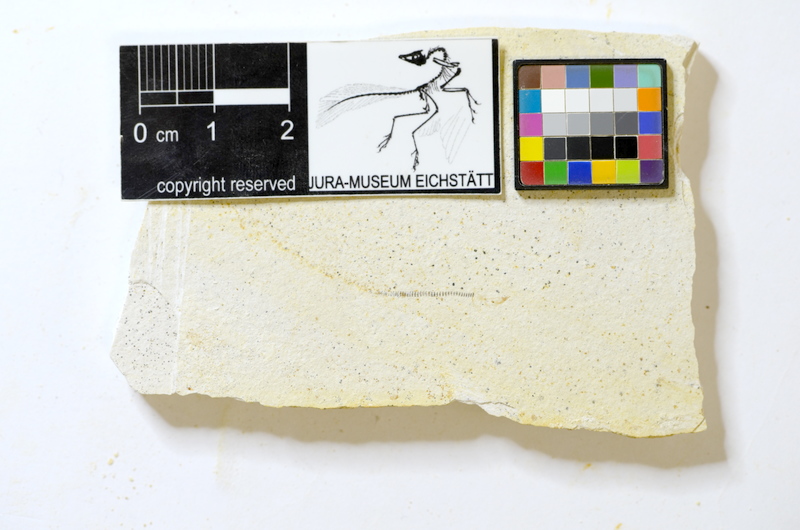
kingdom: Animalia
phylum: Chordata
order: Salmoniformes
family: Orthogonikleithridae
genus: Orthogonikleithrus
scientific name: Orthogonikleithrus hoelli
